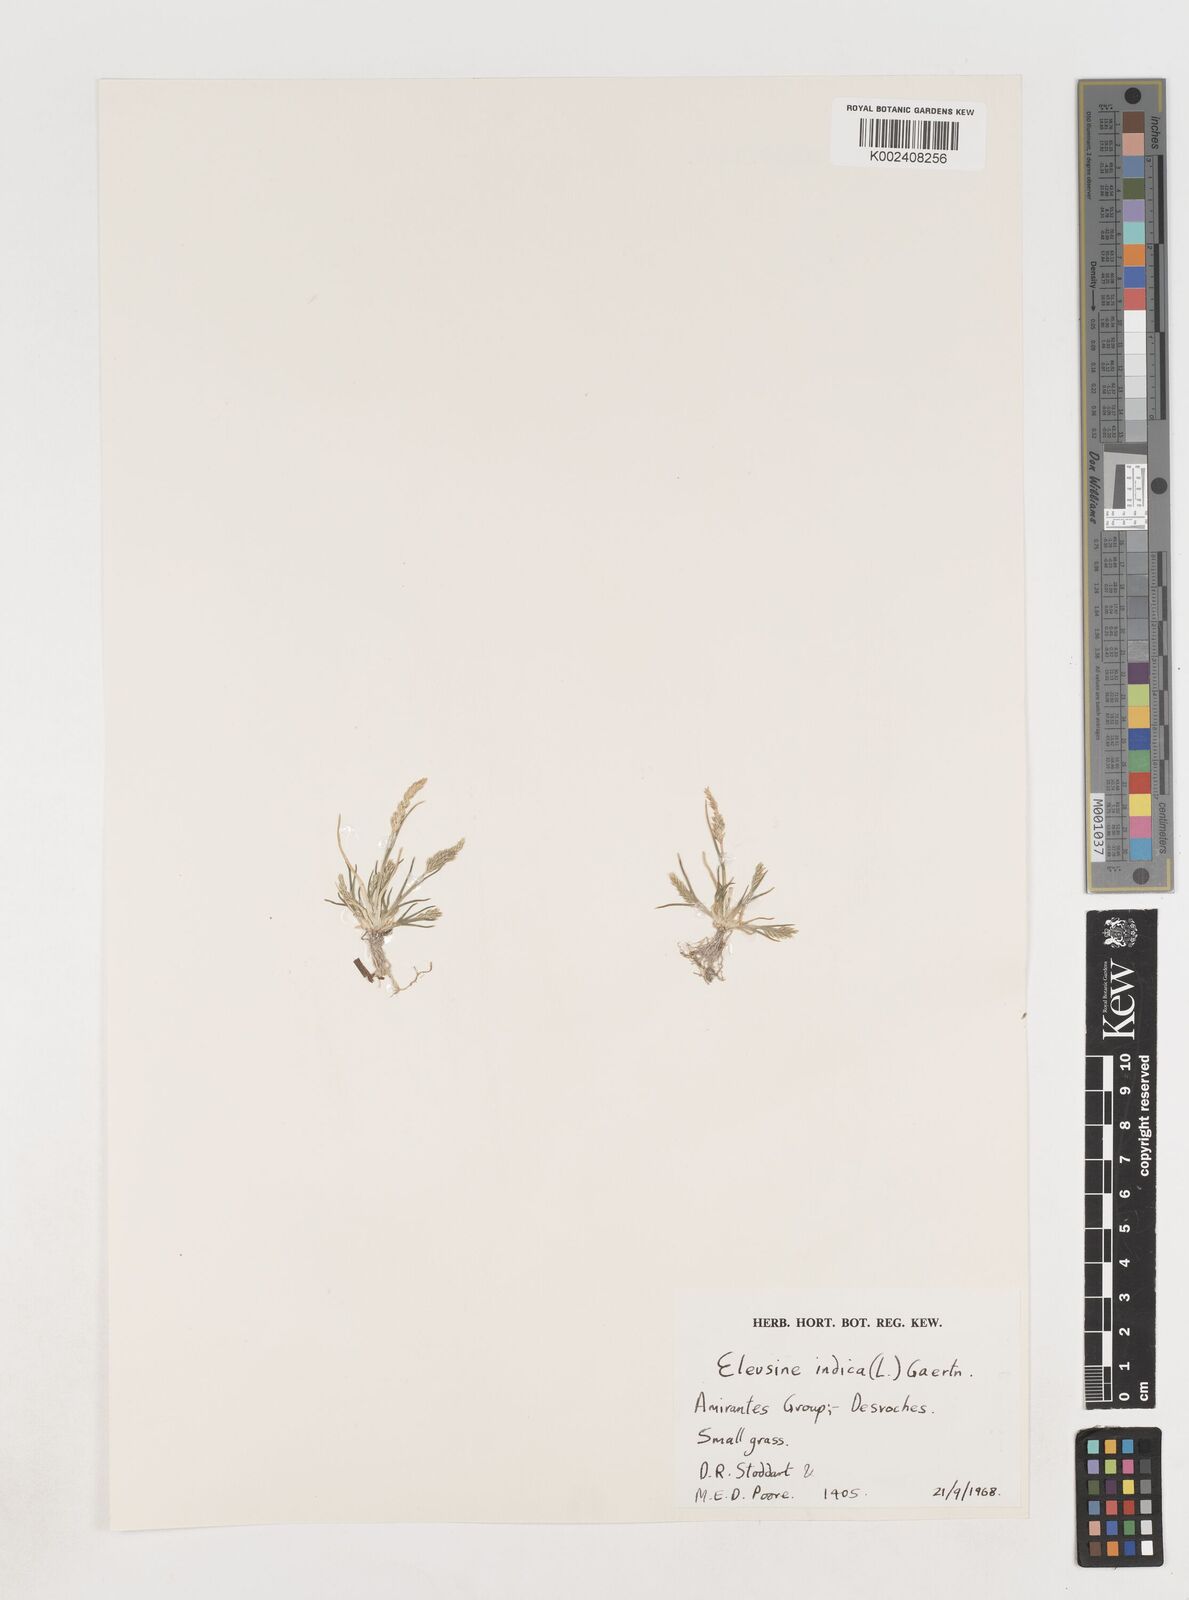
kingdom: Plantae
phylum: Tracheophyta
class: Liliopsida
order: Poales
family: Poaceae
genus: Eleusine
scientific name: Eleusine indica
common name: Yard-grass
